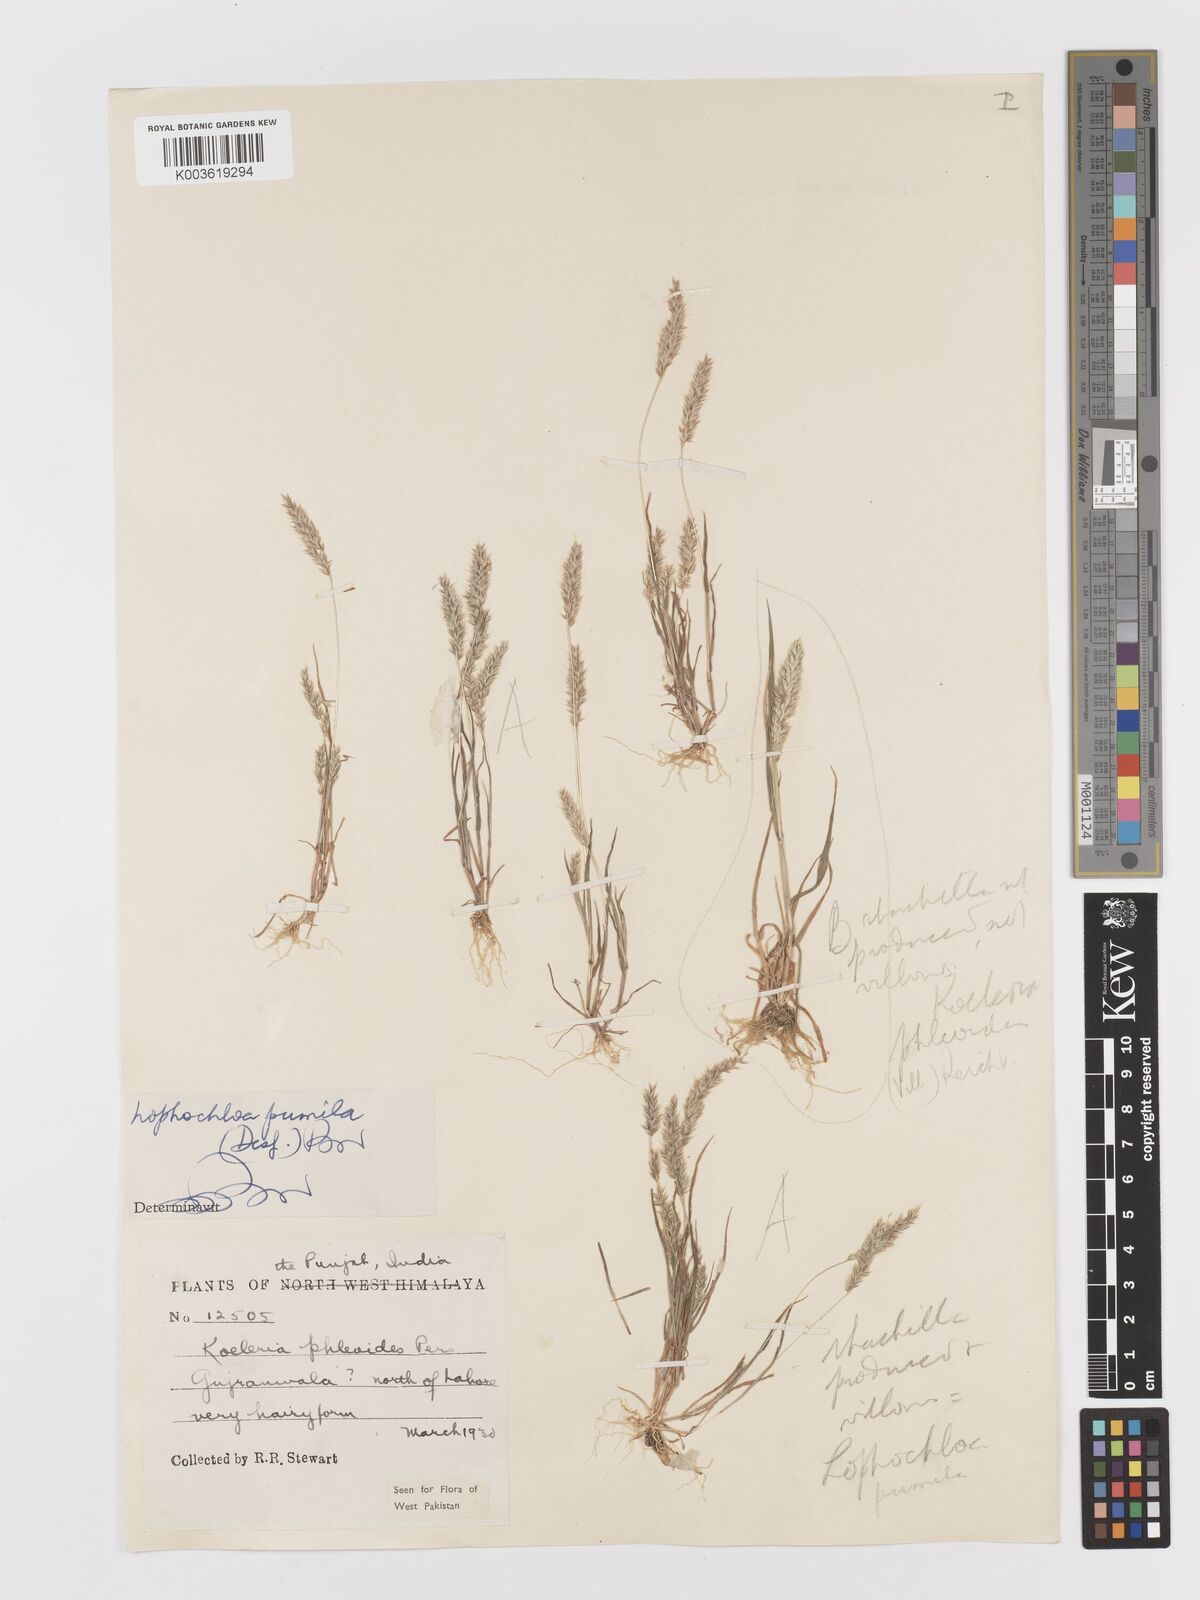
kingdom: Plantae
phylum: Tracheophyta
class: Liliopsida
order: Poales
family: Poaceae
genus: Rostraria
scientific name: Rostraria pumila
